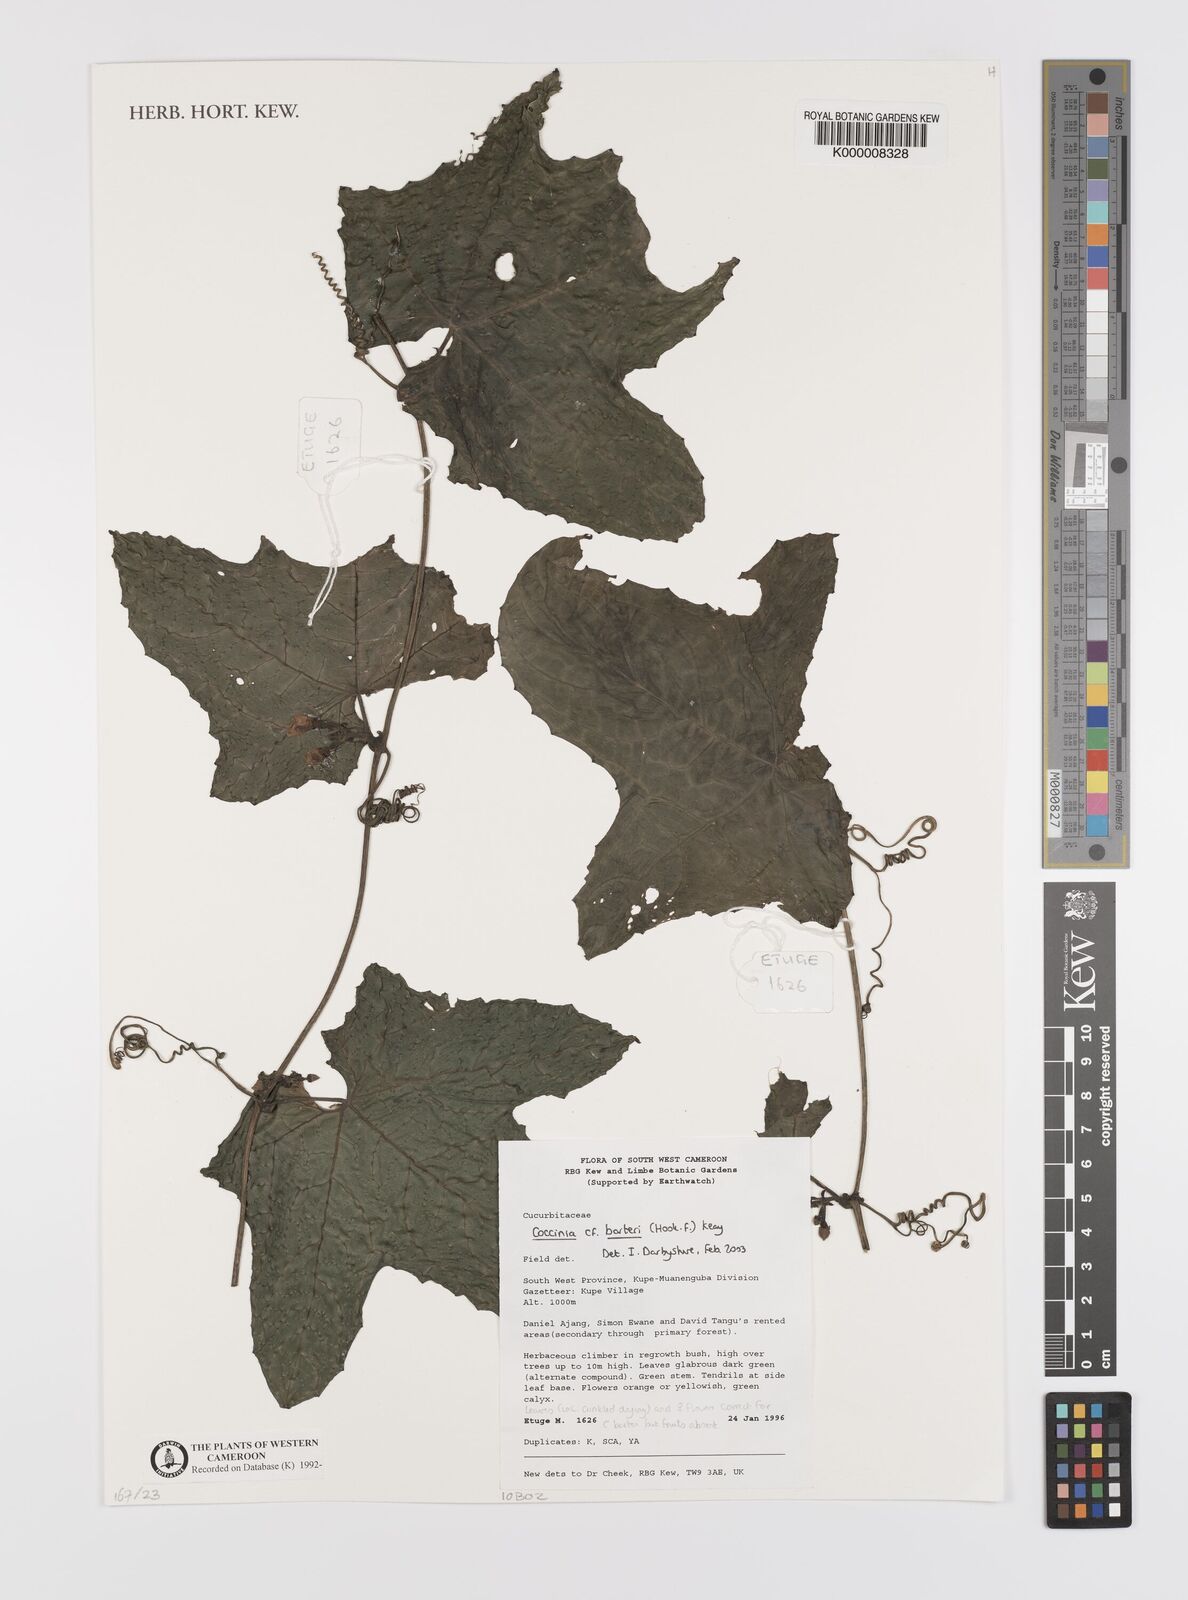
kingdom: Plantae
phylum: Tracheophyta
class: Magnoliopsida
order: Cucurbitales
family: Cucurbitaceae
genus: Coccinia
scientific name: Coccinia barteri
